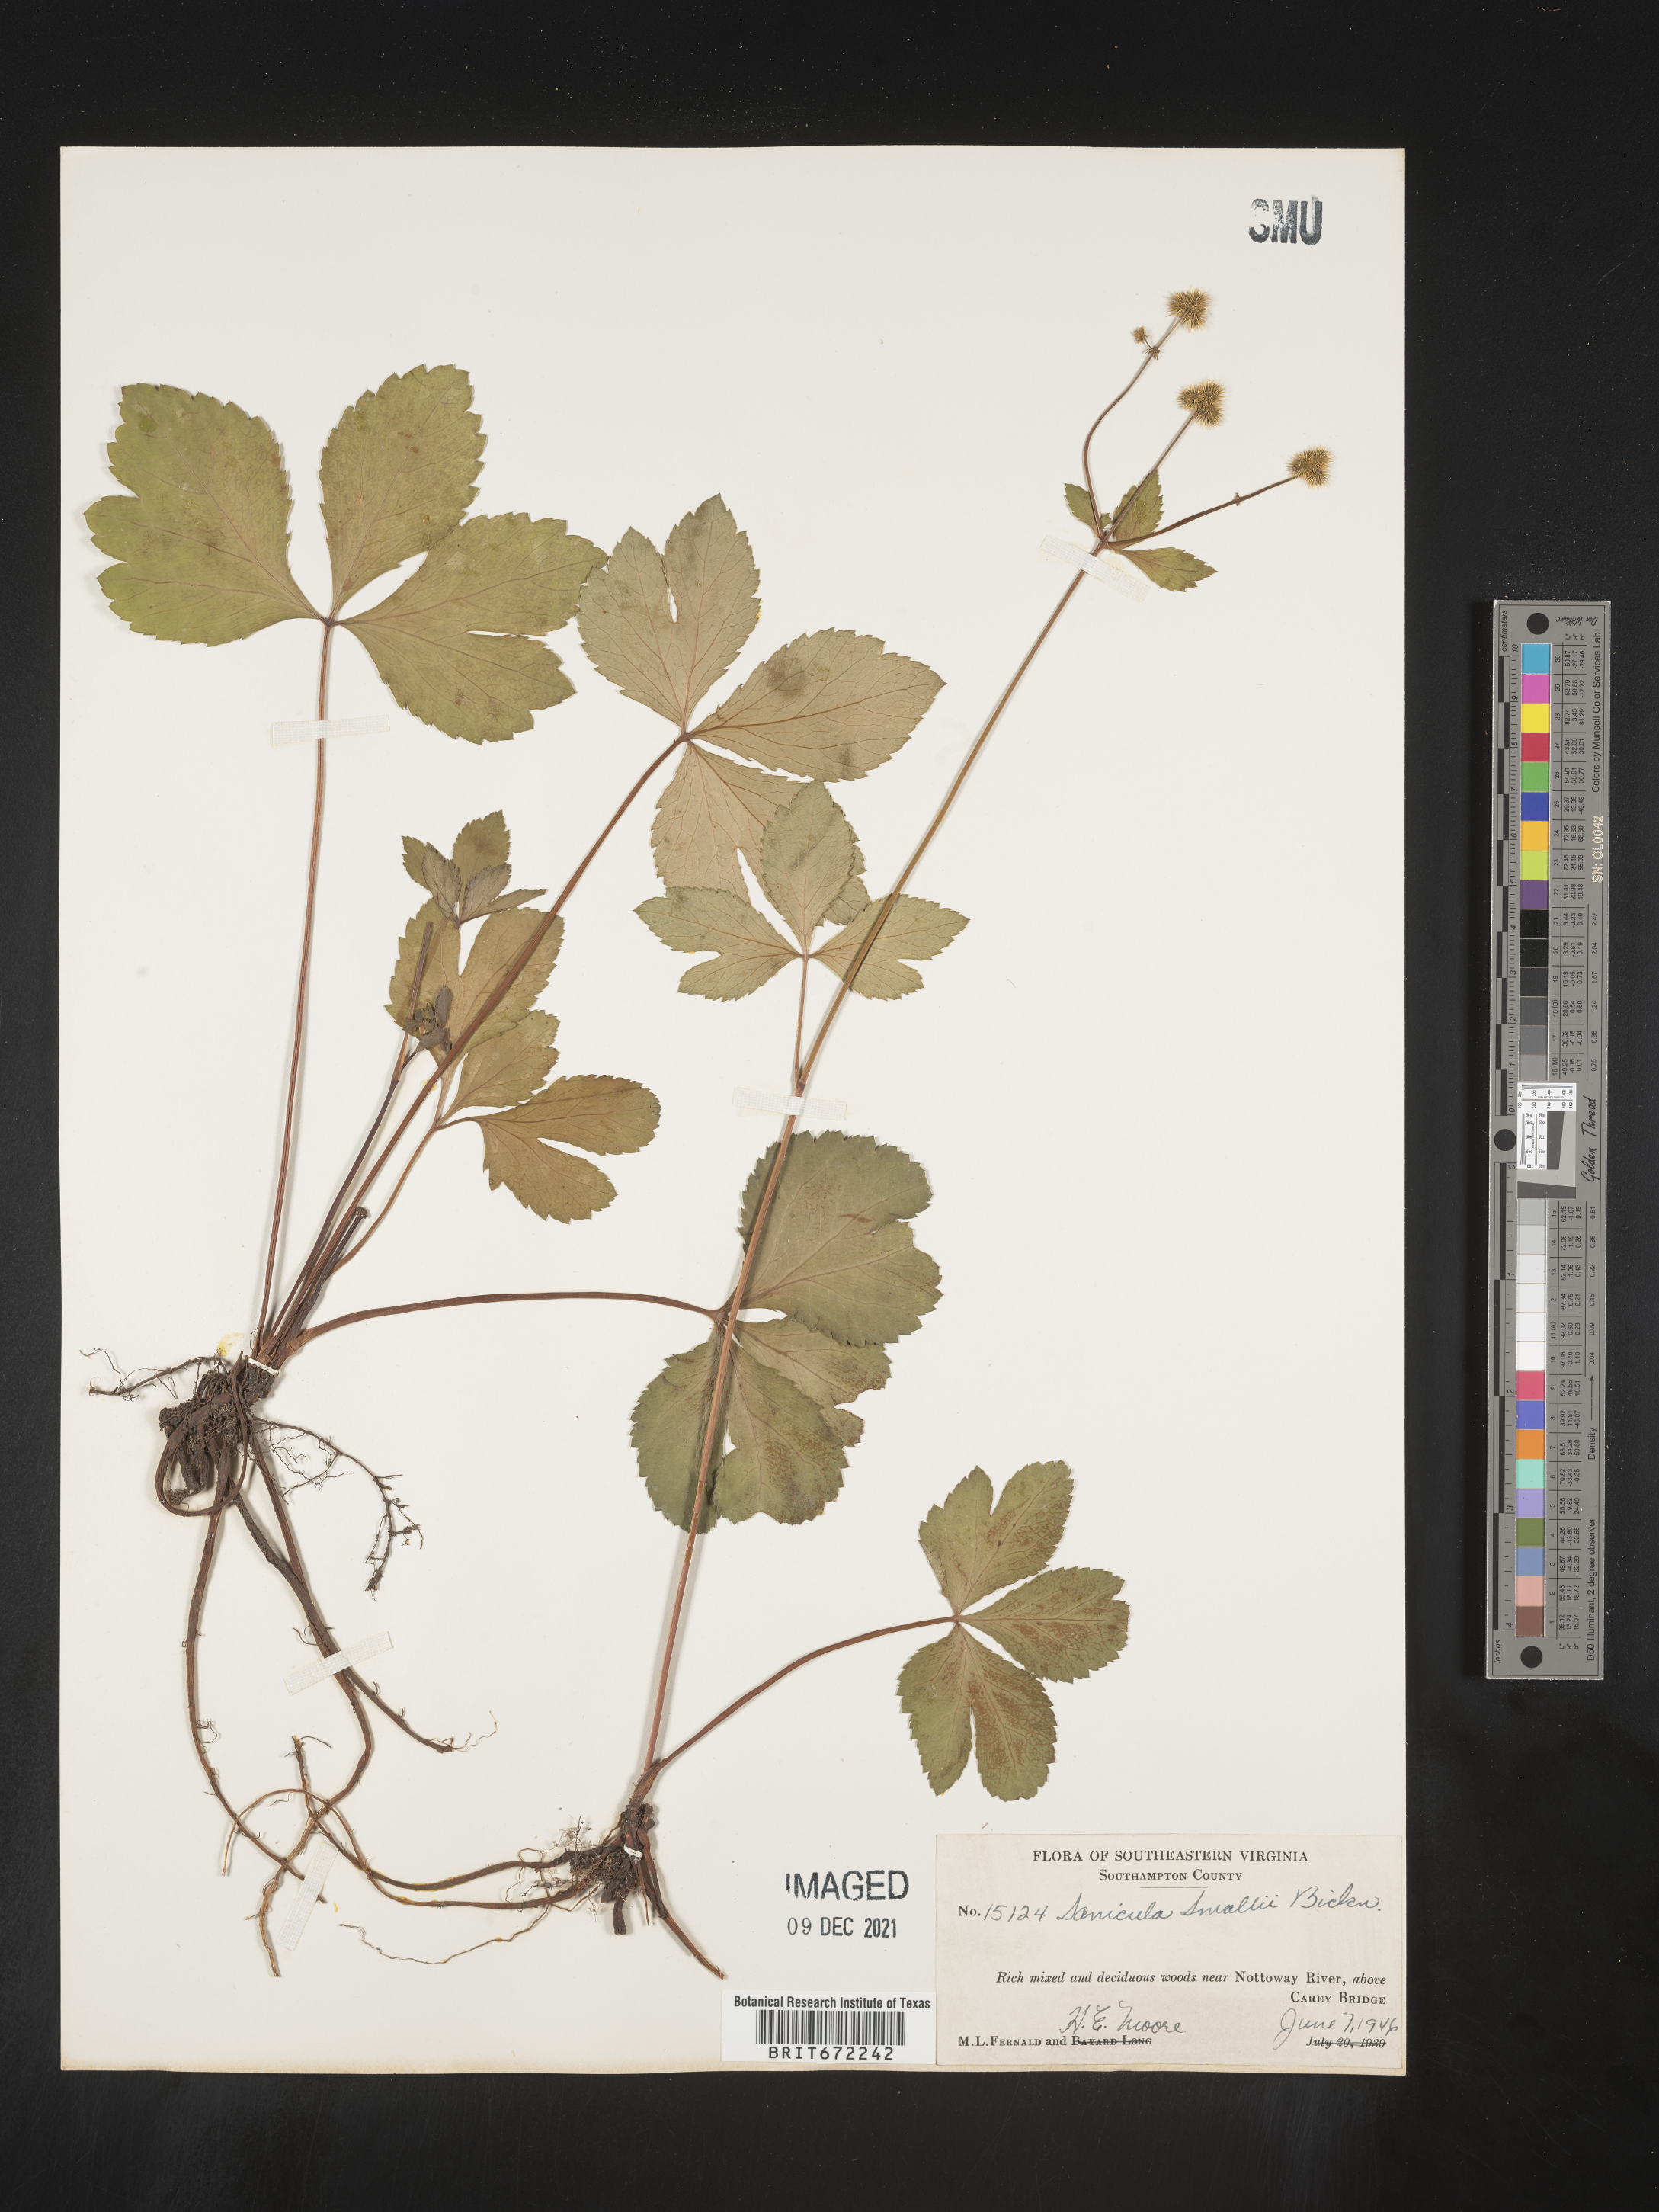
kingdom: Plantae
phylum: Tracheophyta
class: Magnoliopsida
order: Apiales
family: Apiaceae
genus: Sanicula
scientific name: Sanicula
